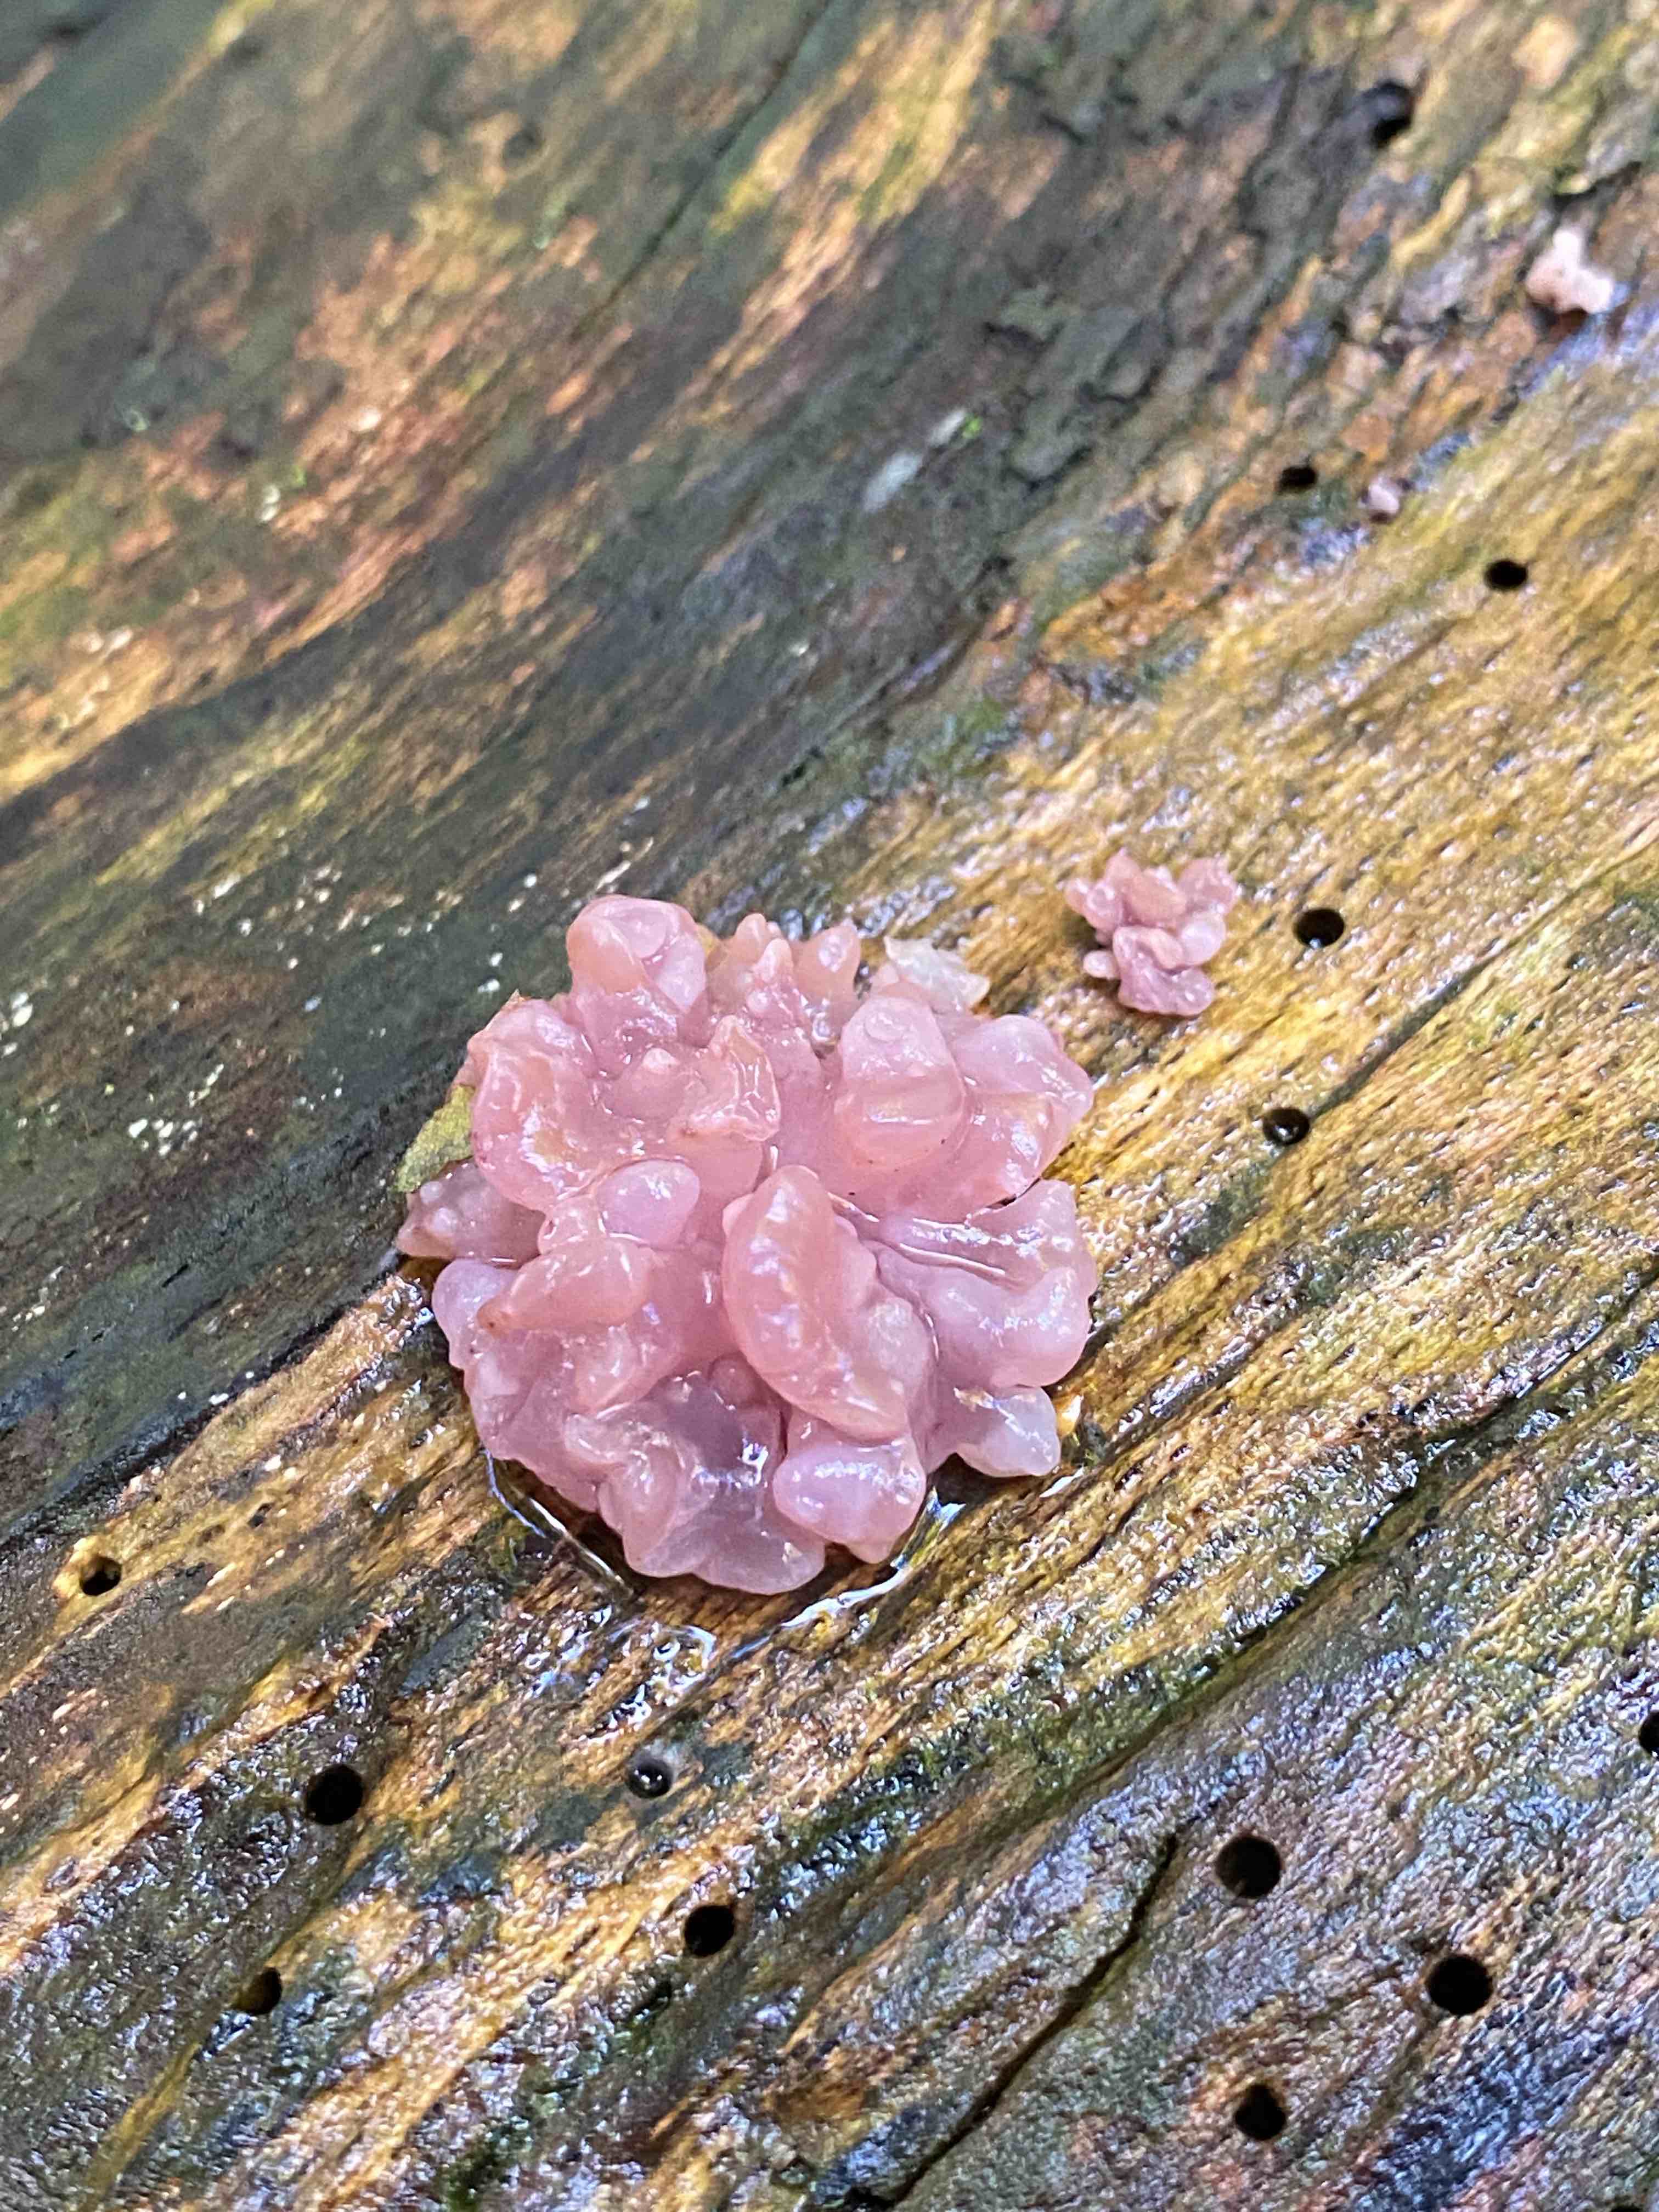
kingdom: Fungi
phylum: Ascomycota
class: Leotiomycetes
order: Helotiales
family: Gelatinodiscaceae
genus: Ascocoryne
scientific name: Ascocoryne sarcoides
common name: rødlilla sejskive
